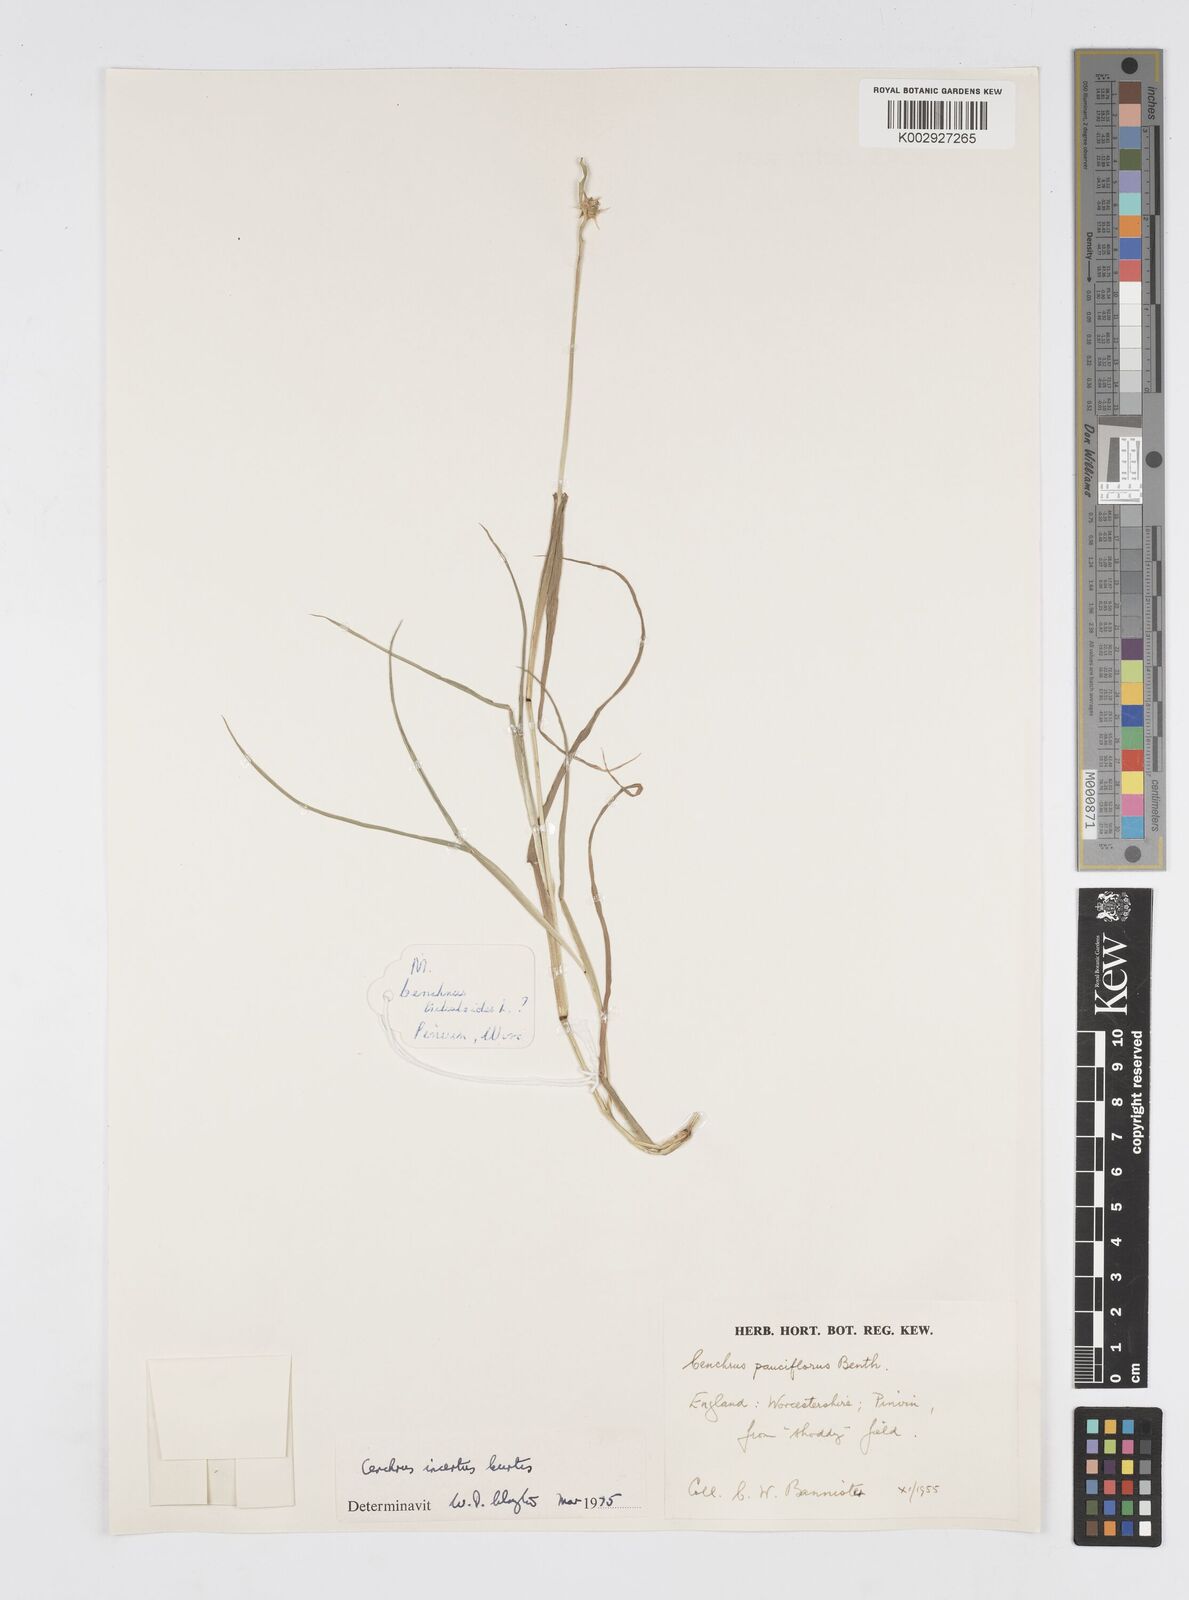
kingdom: Plantae
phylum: Tracheophyta
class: Liliopsida
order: Poales
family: Poaceae
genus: Cenchrus
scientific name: Cenchrus spinifex
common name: Coast sandbur
